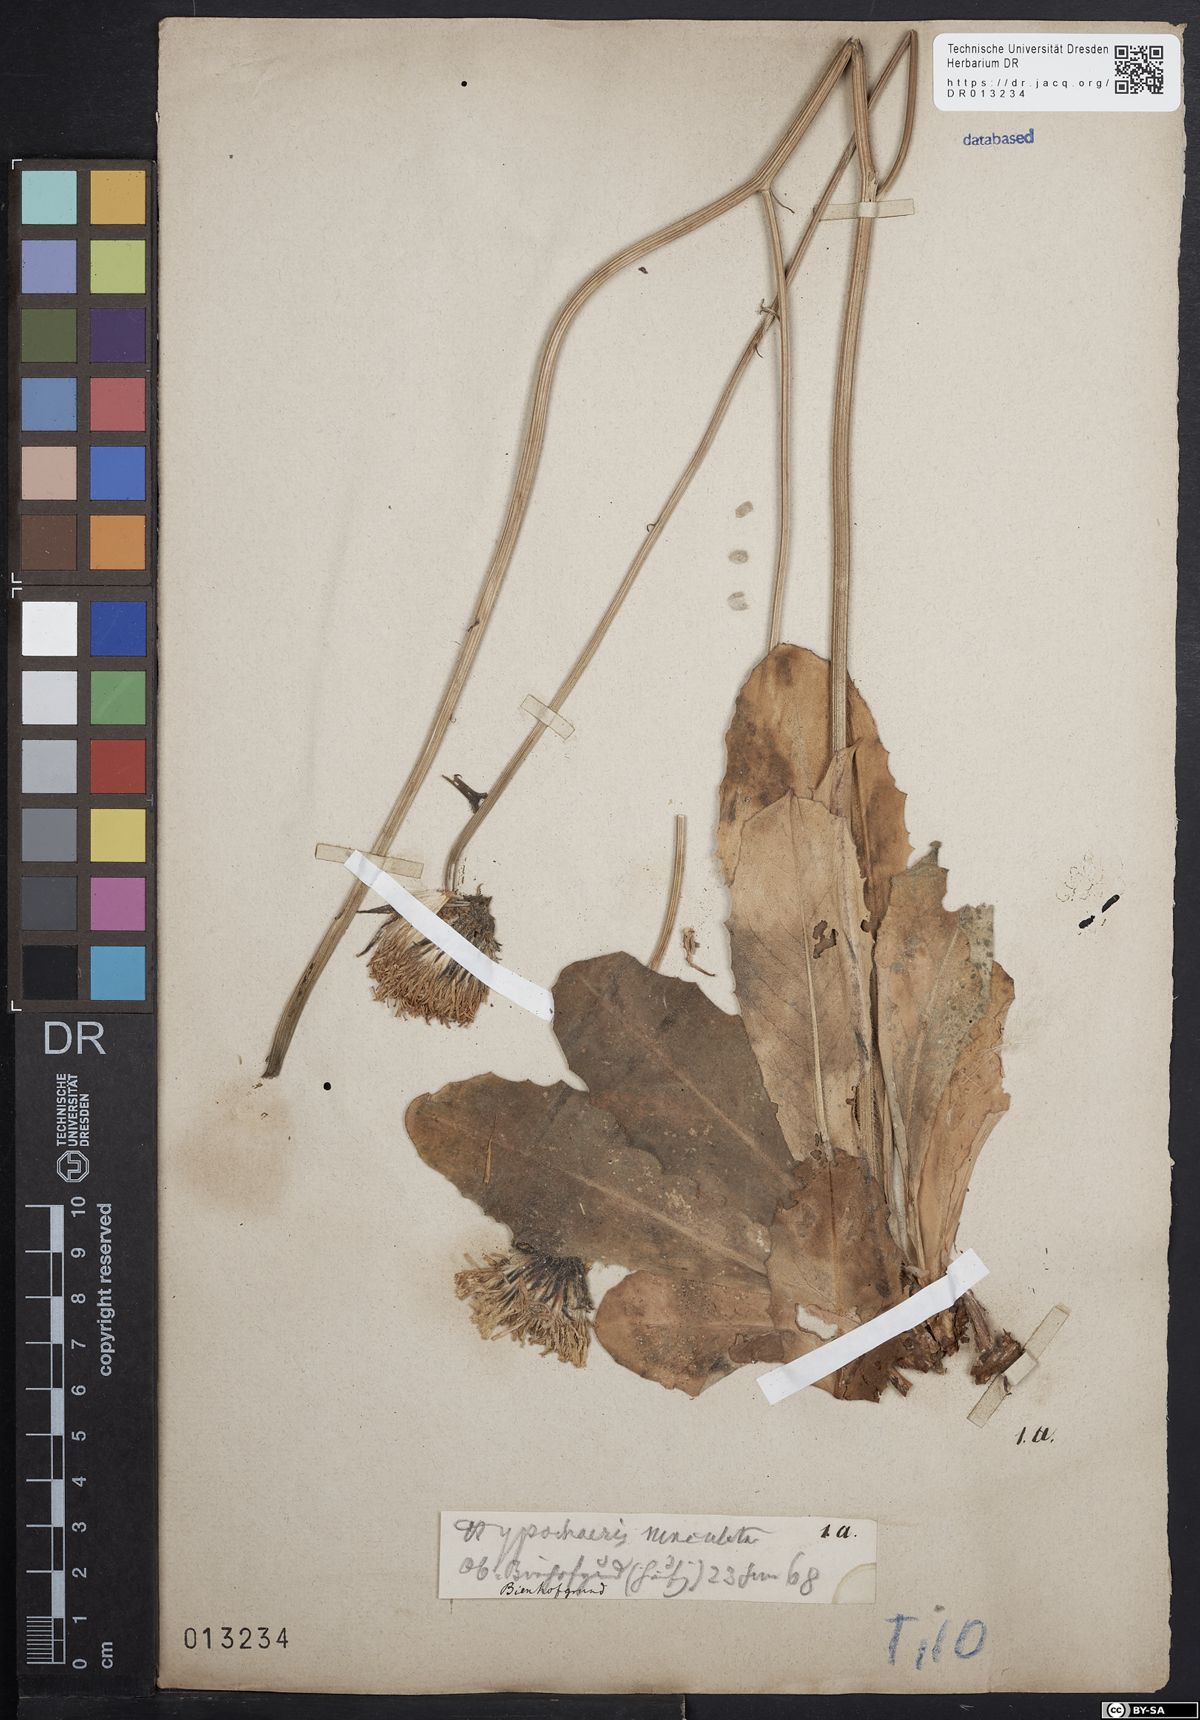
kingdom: Plantae
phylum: Tracheophyta
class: Magnoliopsida
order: Asterales
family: Asteraceae
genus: Trommsdorffia
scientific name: Trommsdorffia maculata
